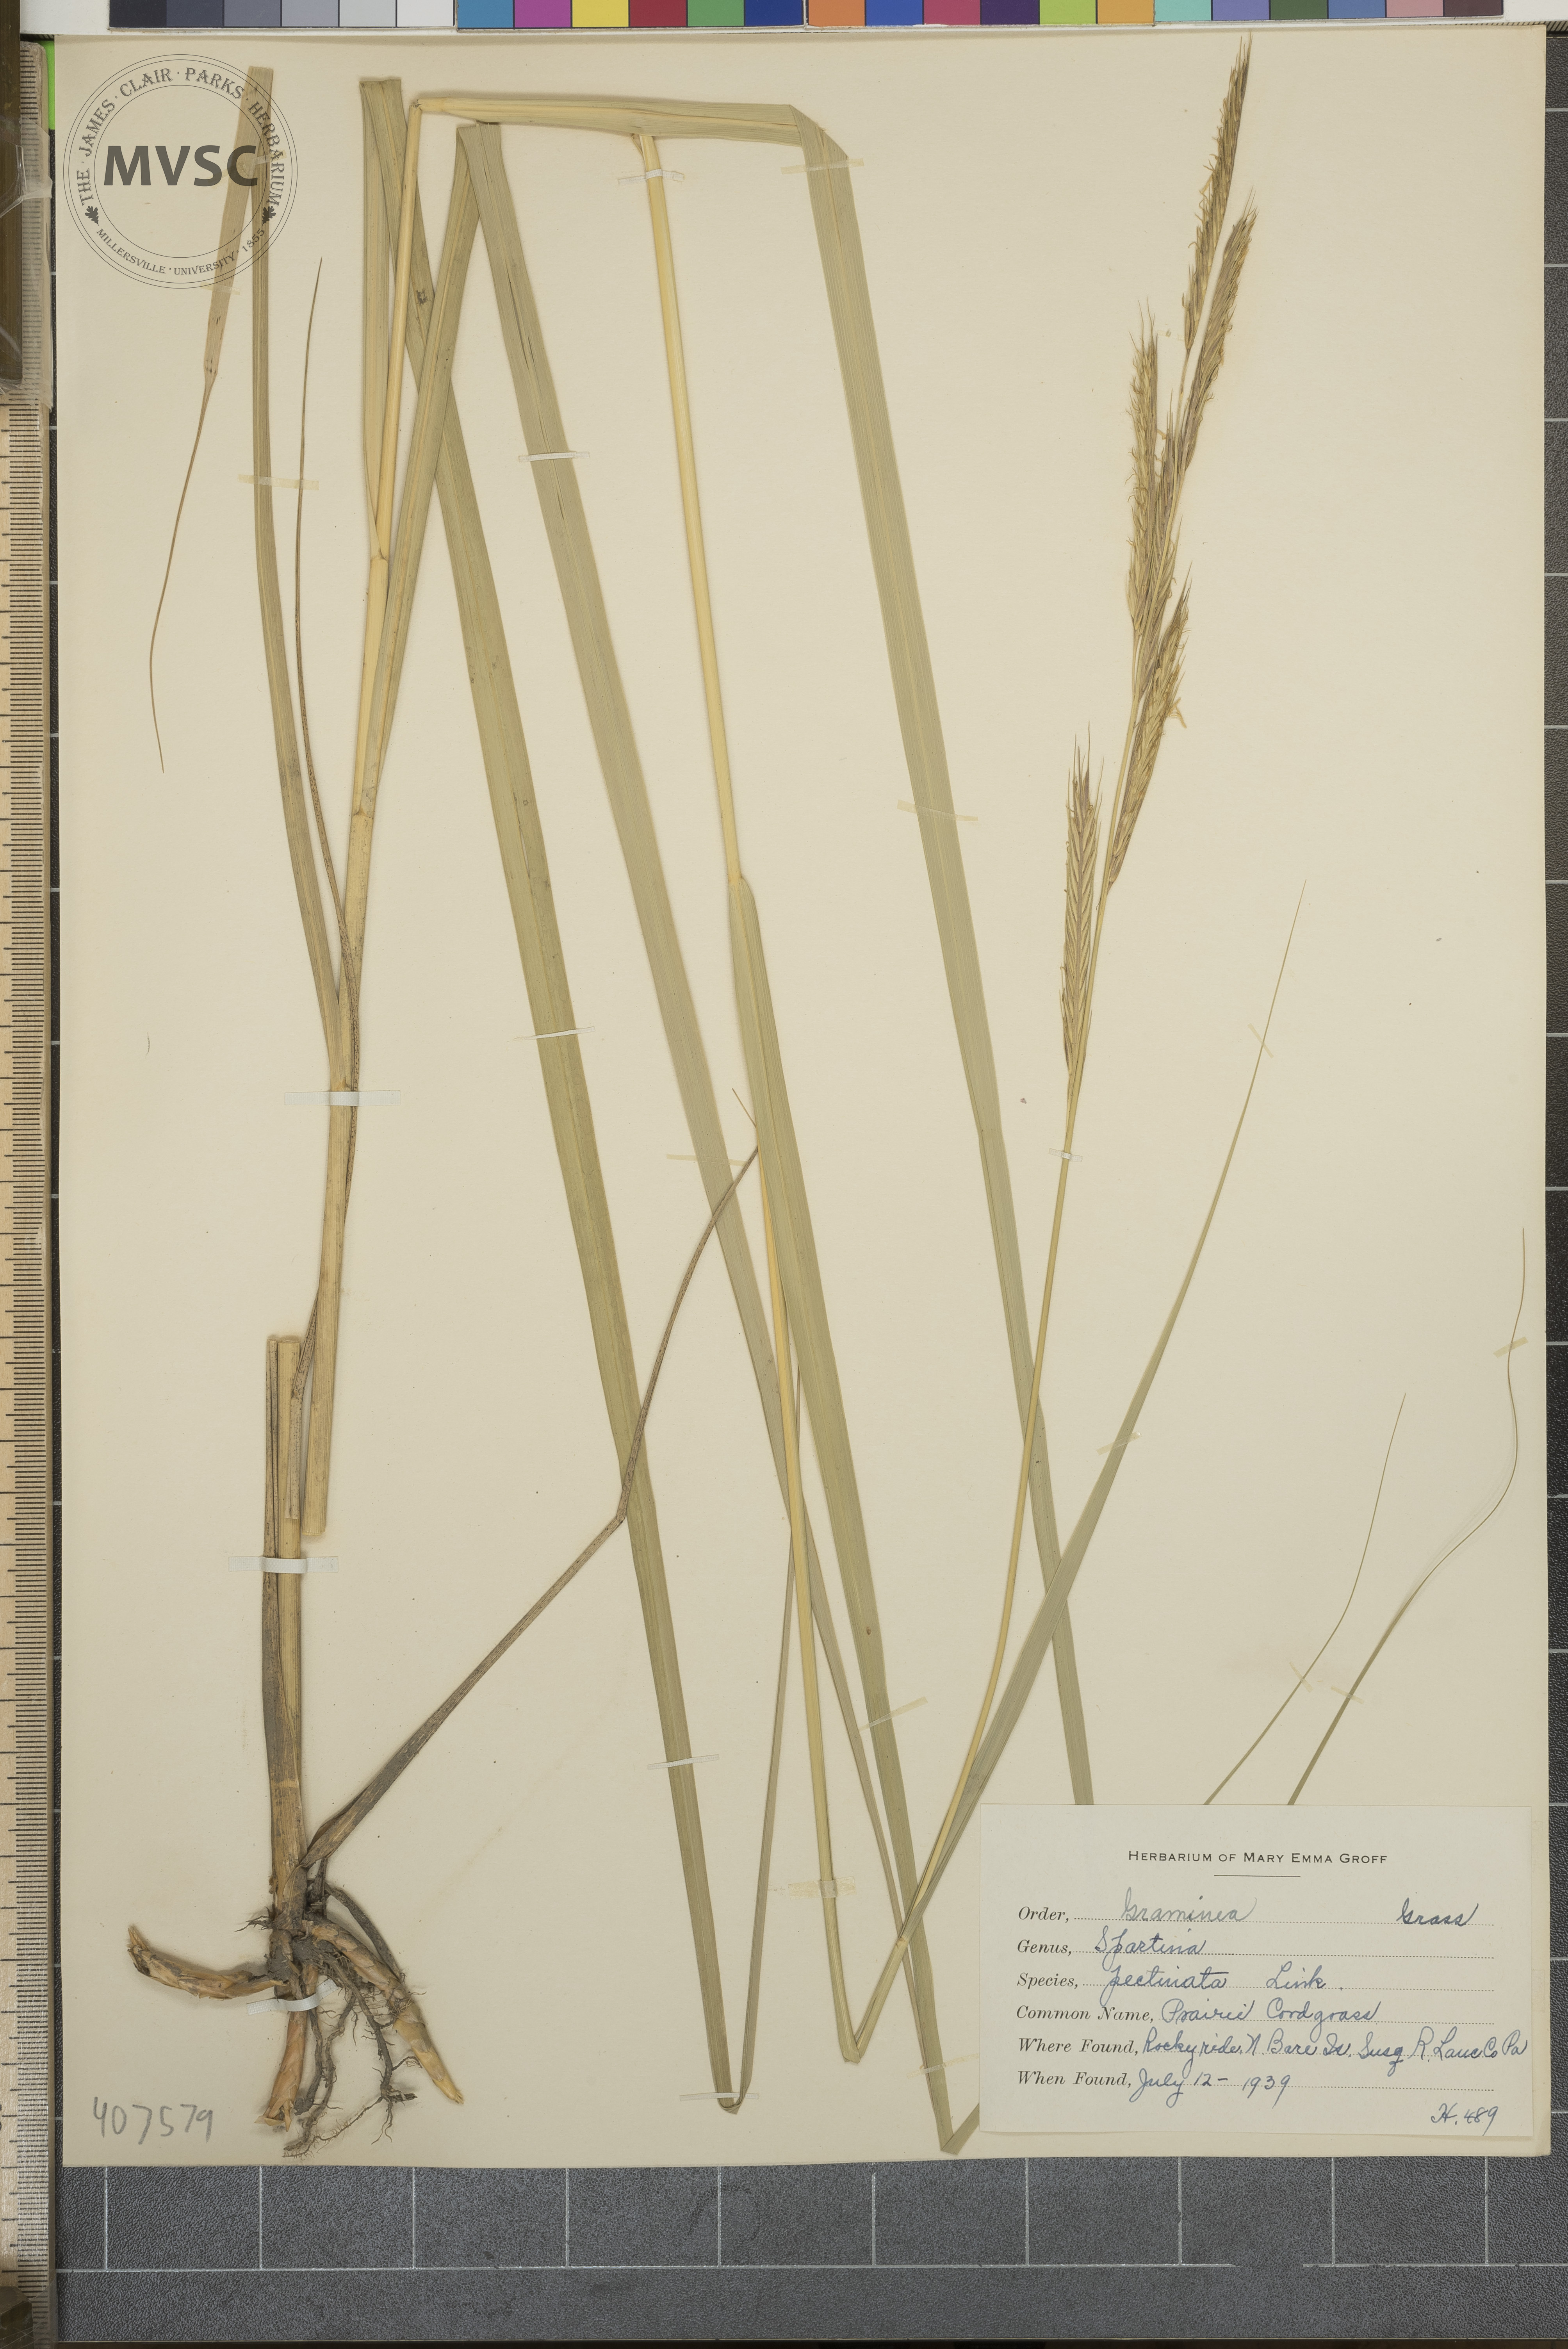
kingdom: Plantae
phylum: Tracheophyta
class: Liliopsida
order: Poales
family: Poaceae
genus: Sporobolus
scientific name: Sporobolus michauxianus
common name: Prairie Cord grass
